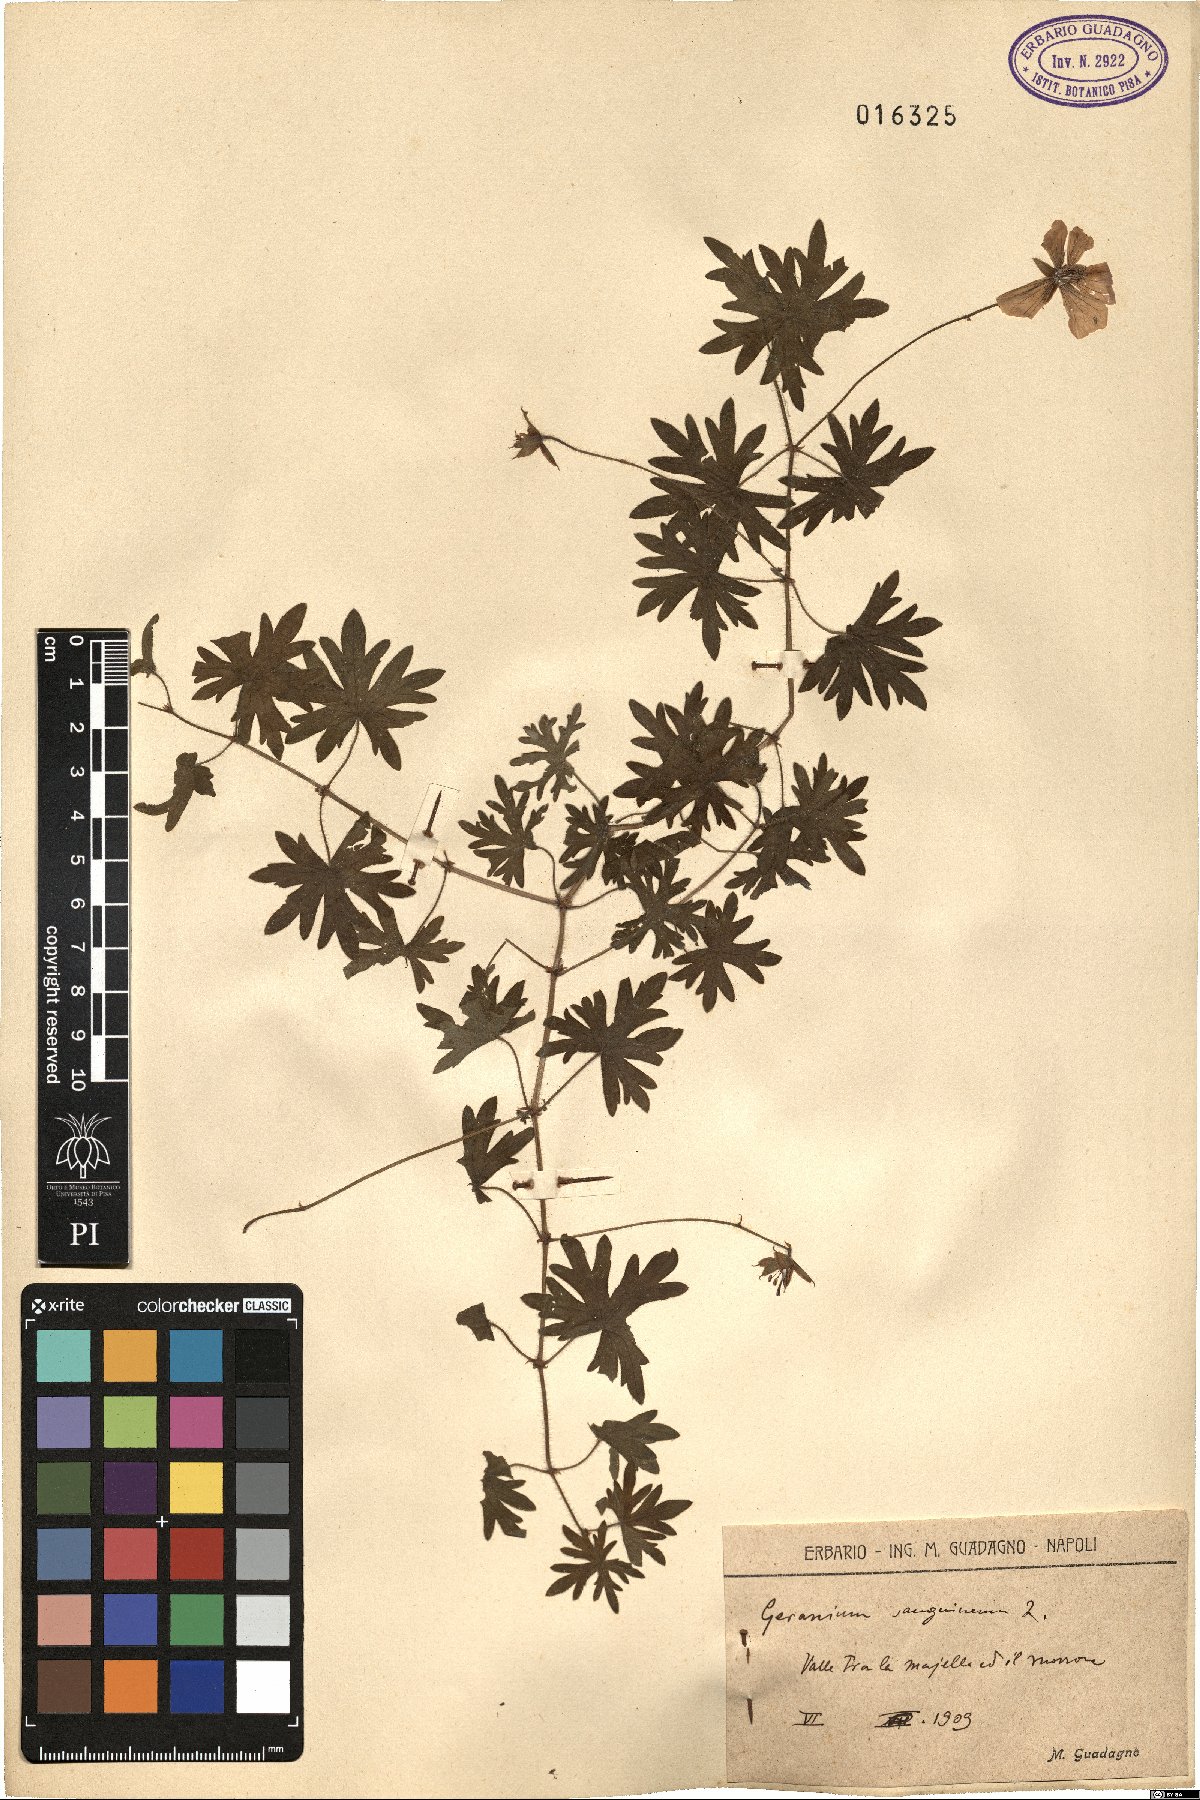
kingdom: Plantae
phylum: Tracheophyta
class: Magnoliopsida
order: Geraniales
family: Geraniaceae
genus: Geranium
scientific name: Geranium sanguineum
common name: Bloody crane's-bill
